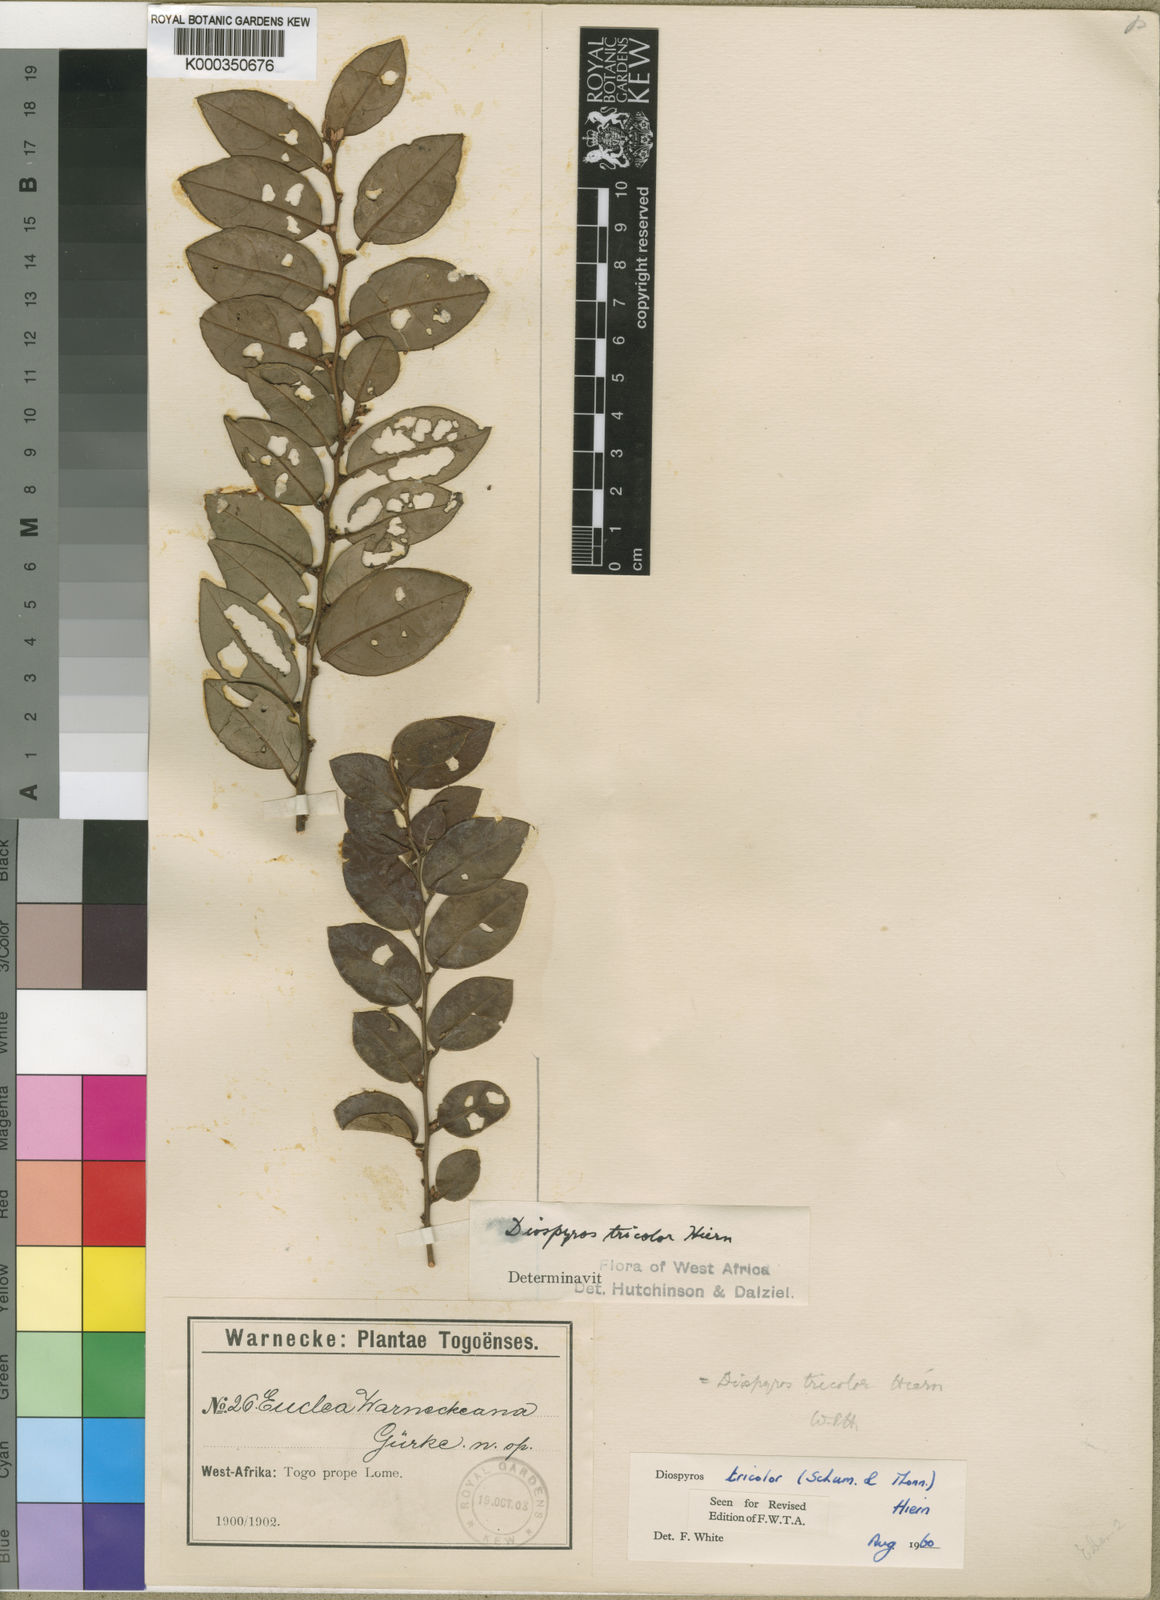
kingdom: Plantae
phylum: Tracheophyta
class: Magnoliopsida
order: Ericales
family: Ebenaceae
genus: Diospyros
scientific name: Diospyros tricolor
